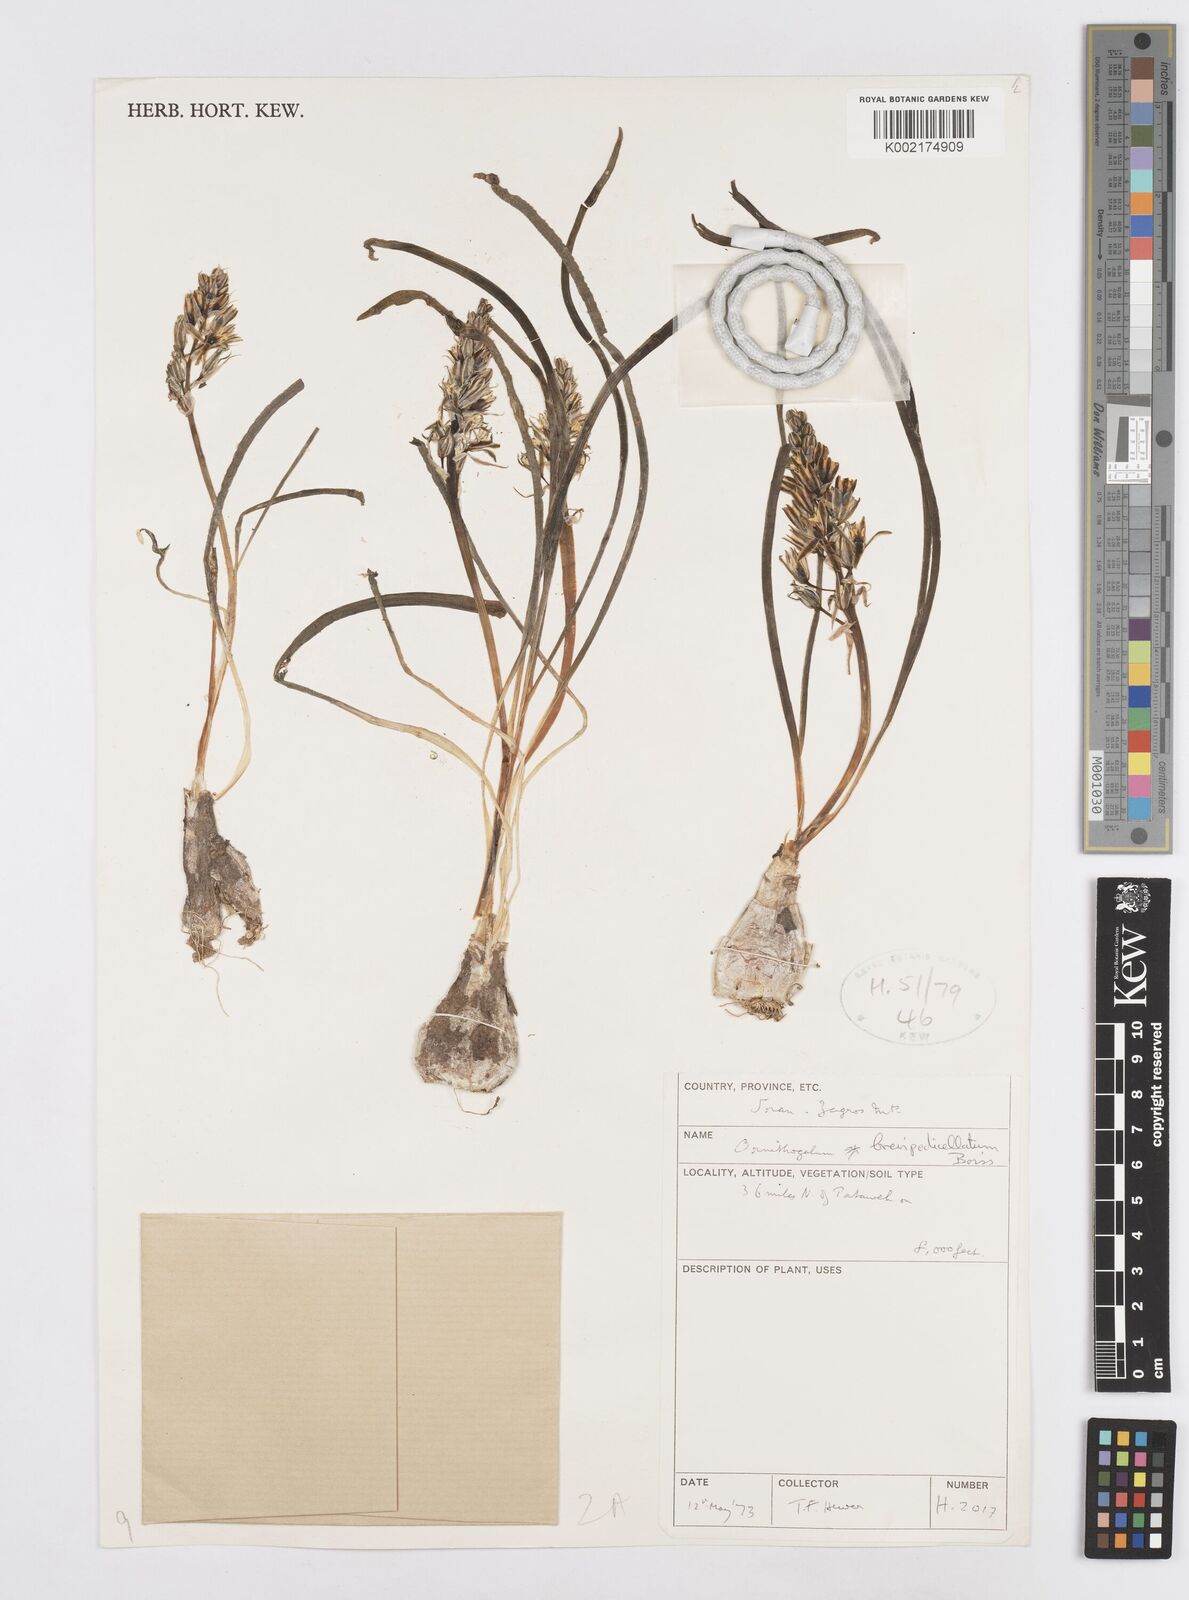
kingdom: Plantae
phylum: Tracheophyta
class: Liliopsida
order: Asparagales
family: Asparagaceae
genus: Ornithogalum
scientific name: Ornithogalum brevipedicellatum
